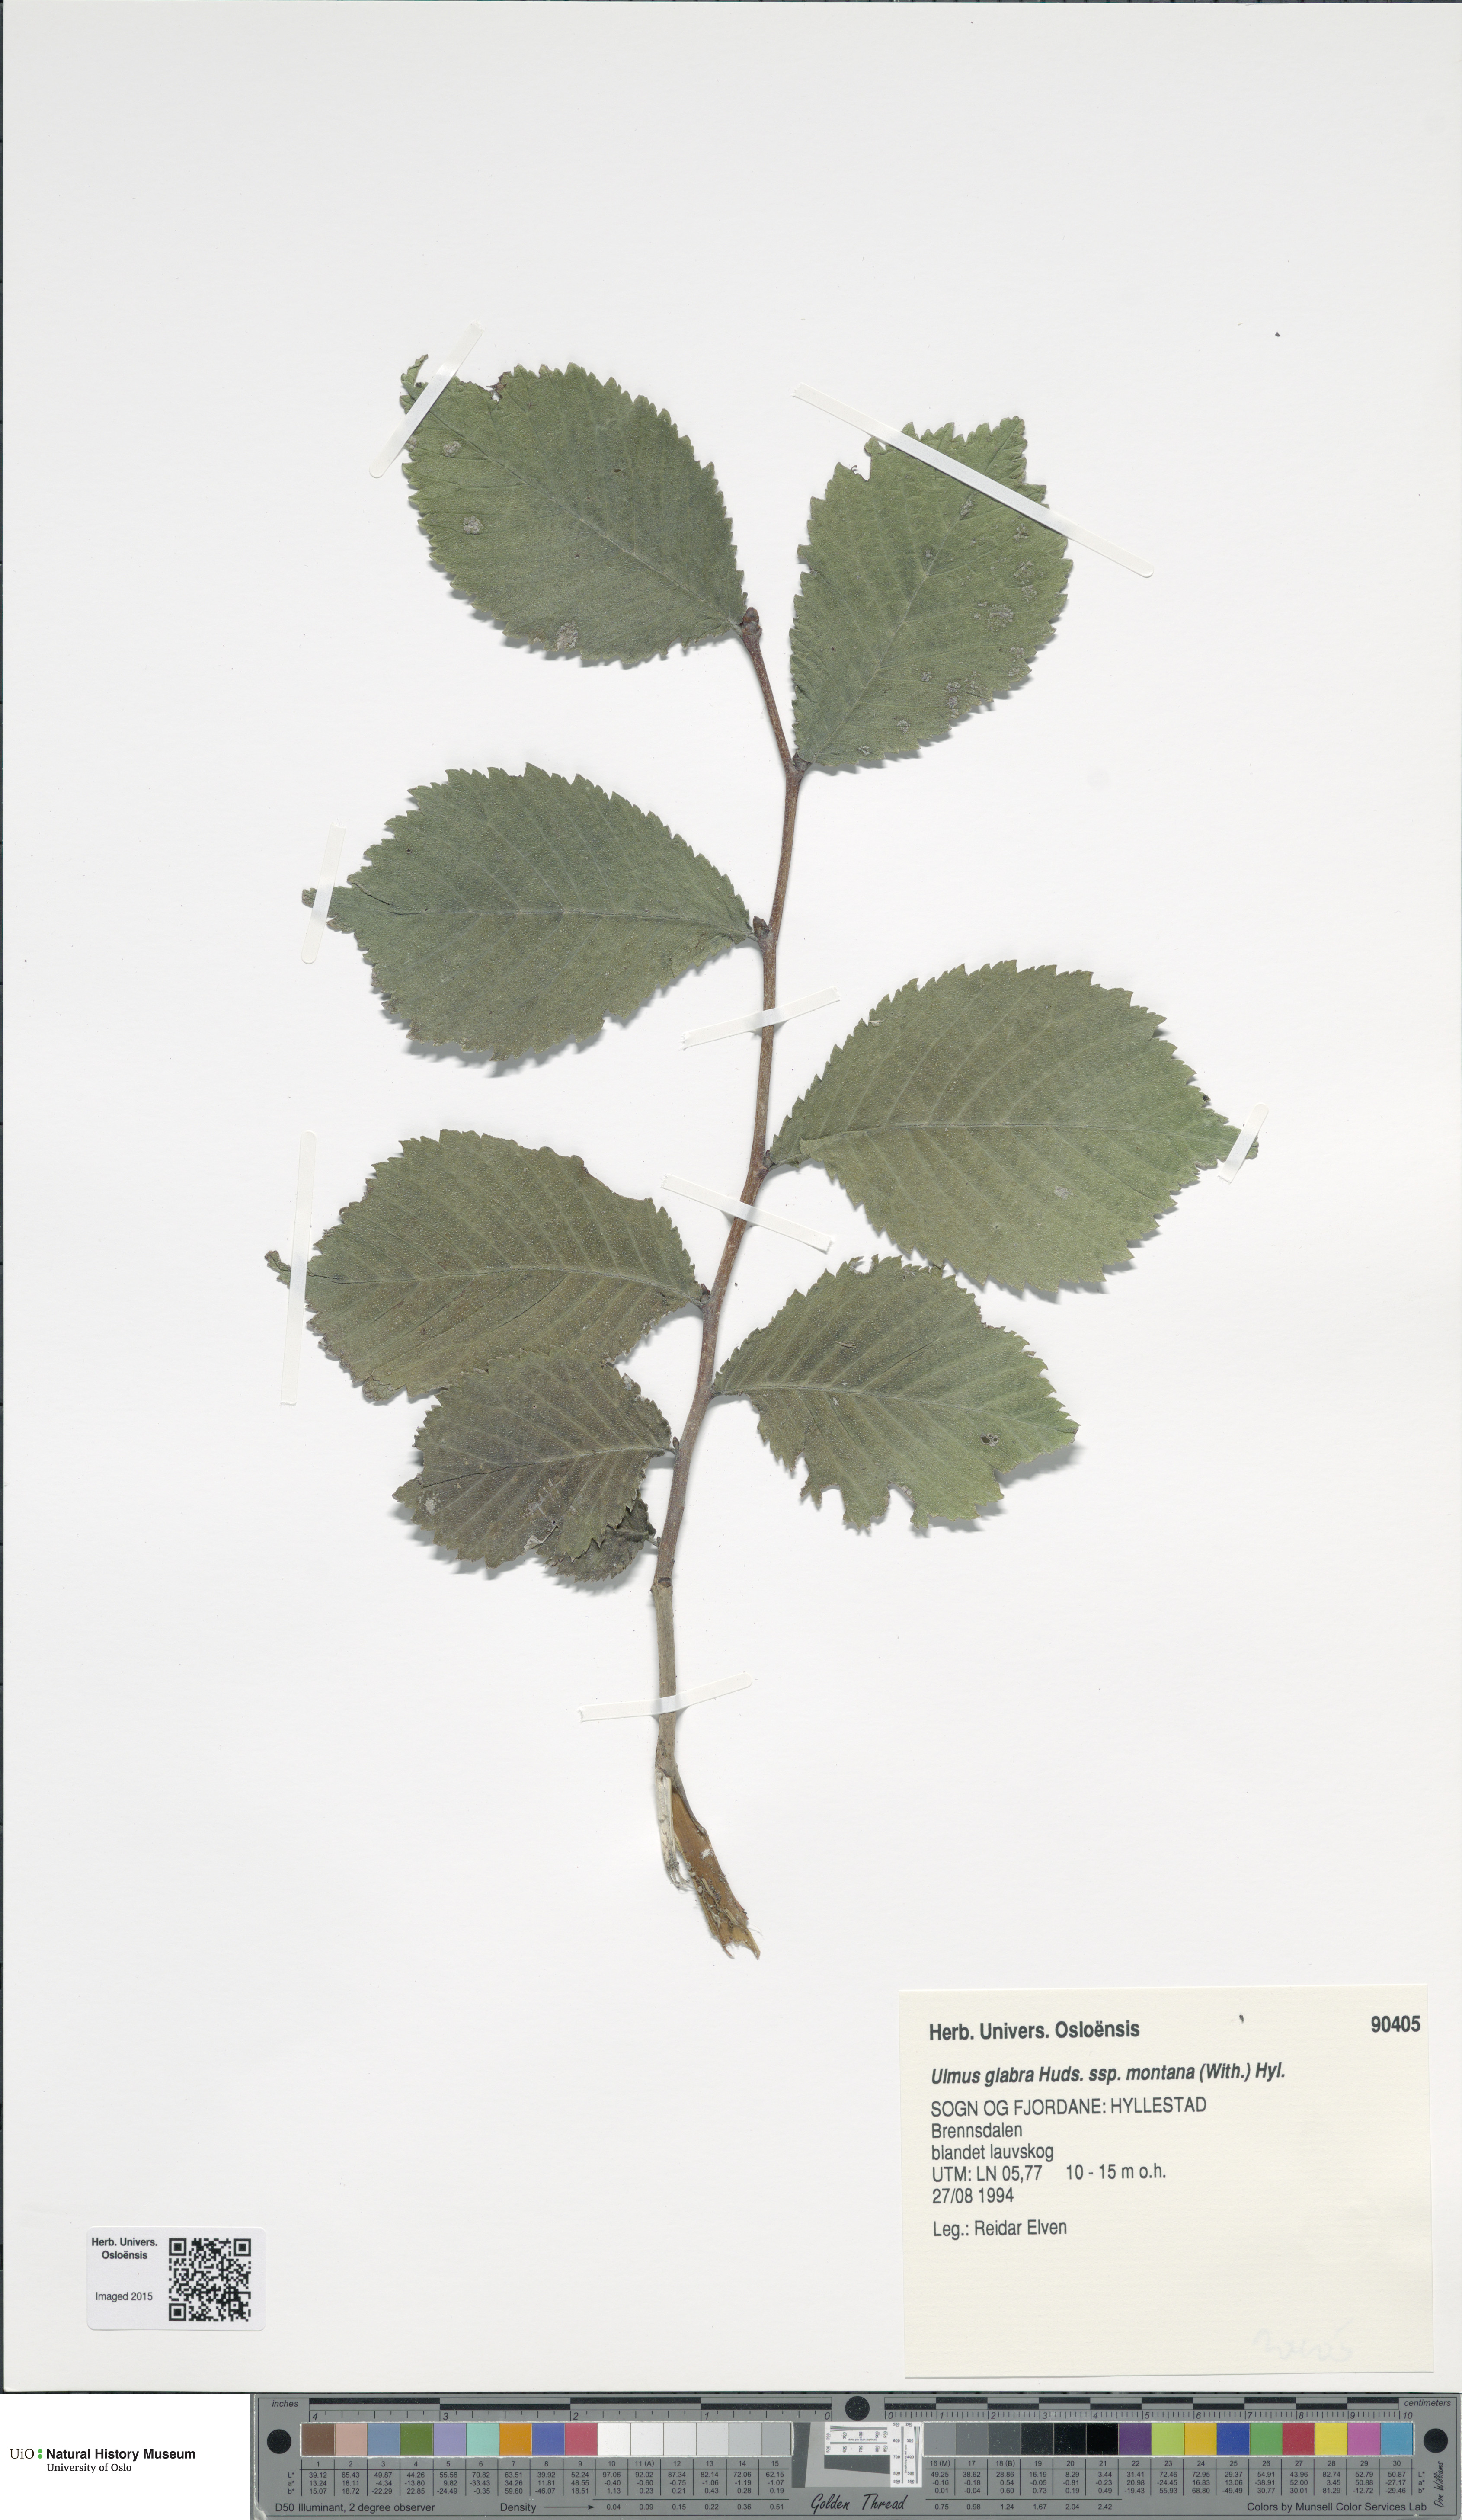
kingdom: Plantae
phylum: Tracheophyta
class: Magnoliopsida
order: Rosales
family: Ulmaceae
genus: Ulmus
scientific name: Ulmus glabra
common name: Wych elm
